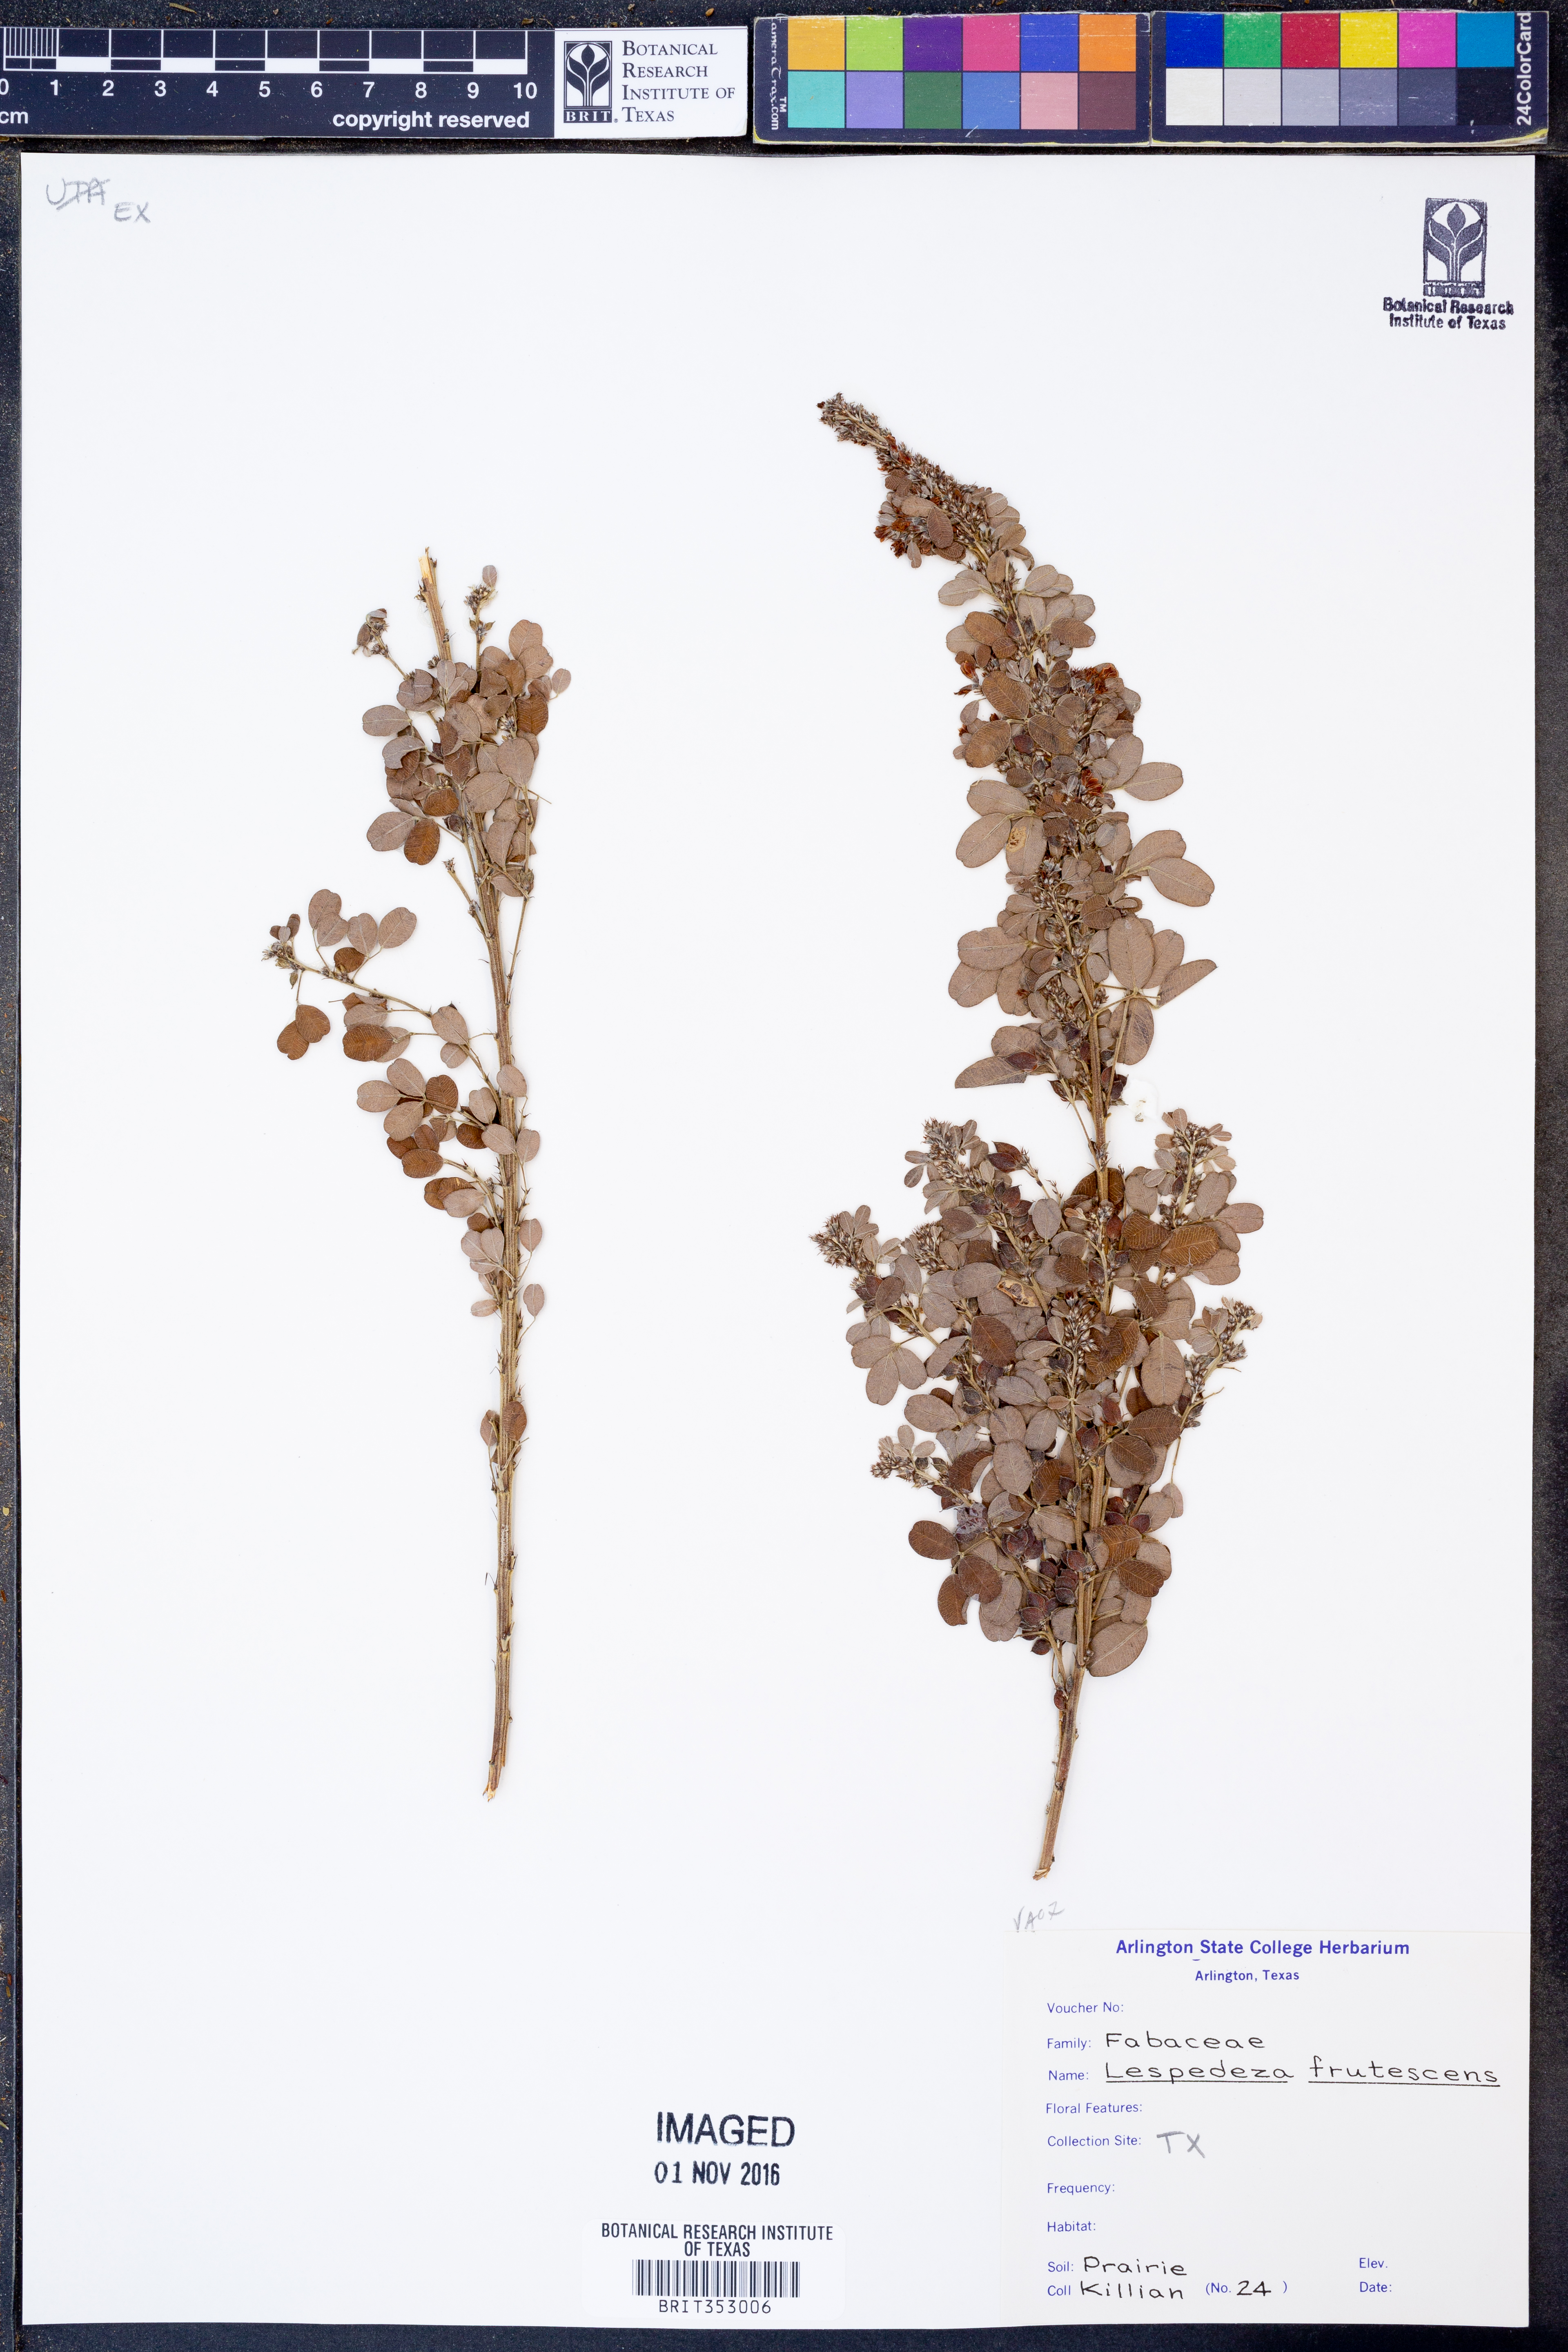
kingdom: Plantae
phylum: Tracheophyta
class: Magnoliopsida
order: Fabales
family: Fabaceae
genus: Lespedeza
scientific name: Lespedeza violacea
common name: Wand bush-clover
